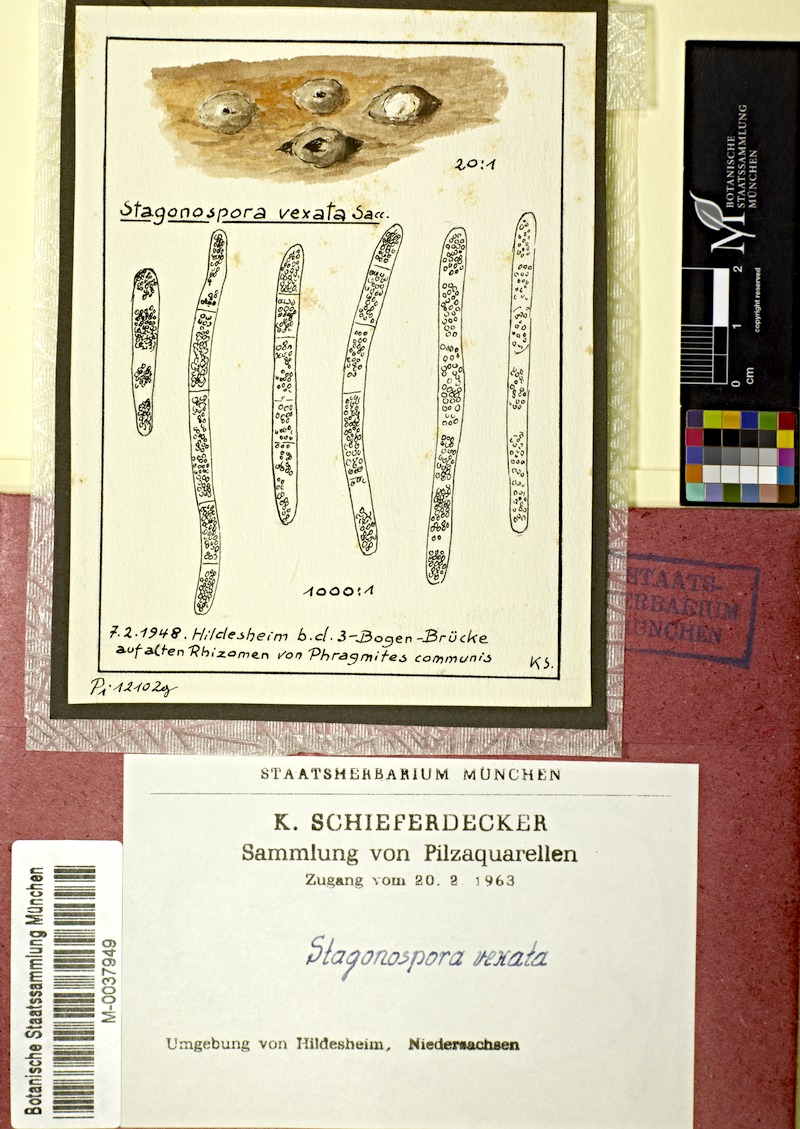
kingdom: Plantae
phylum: Tracheophyta
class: Liliopsida
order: Poales
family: Poaceae
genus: Phragmites
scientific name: Phragmites australis
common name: Common reed
